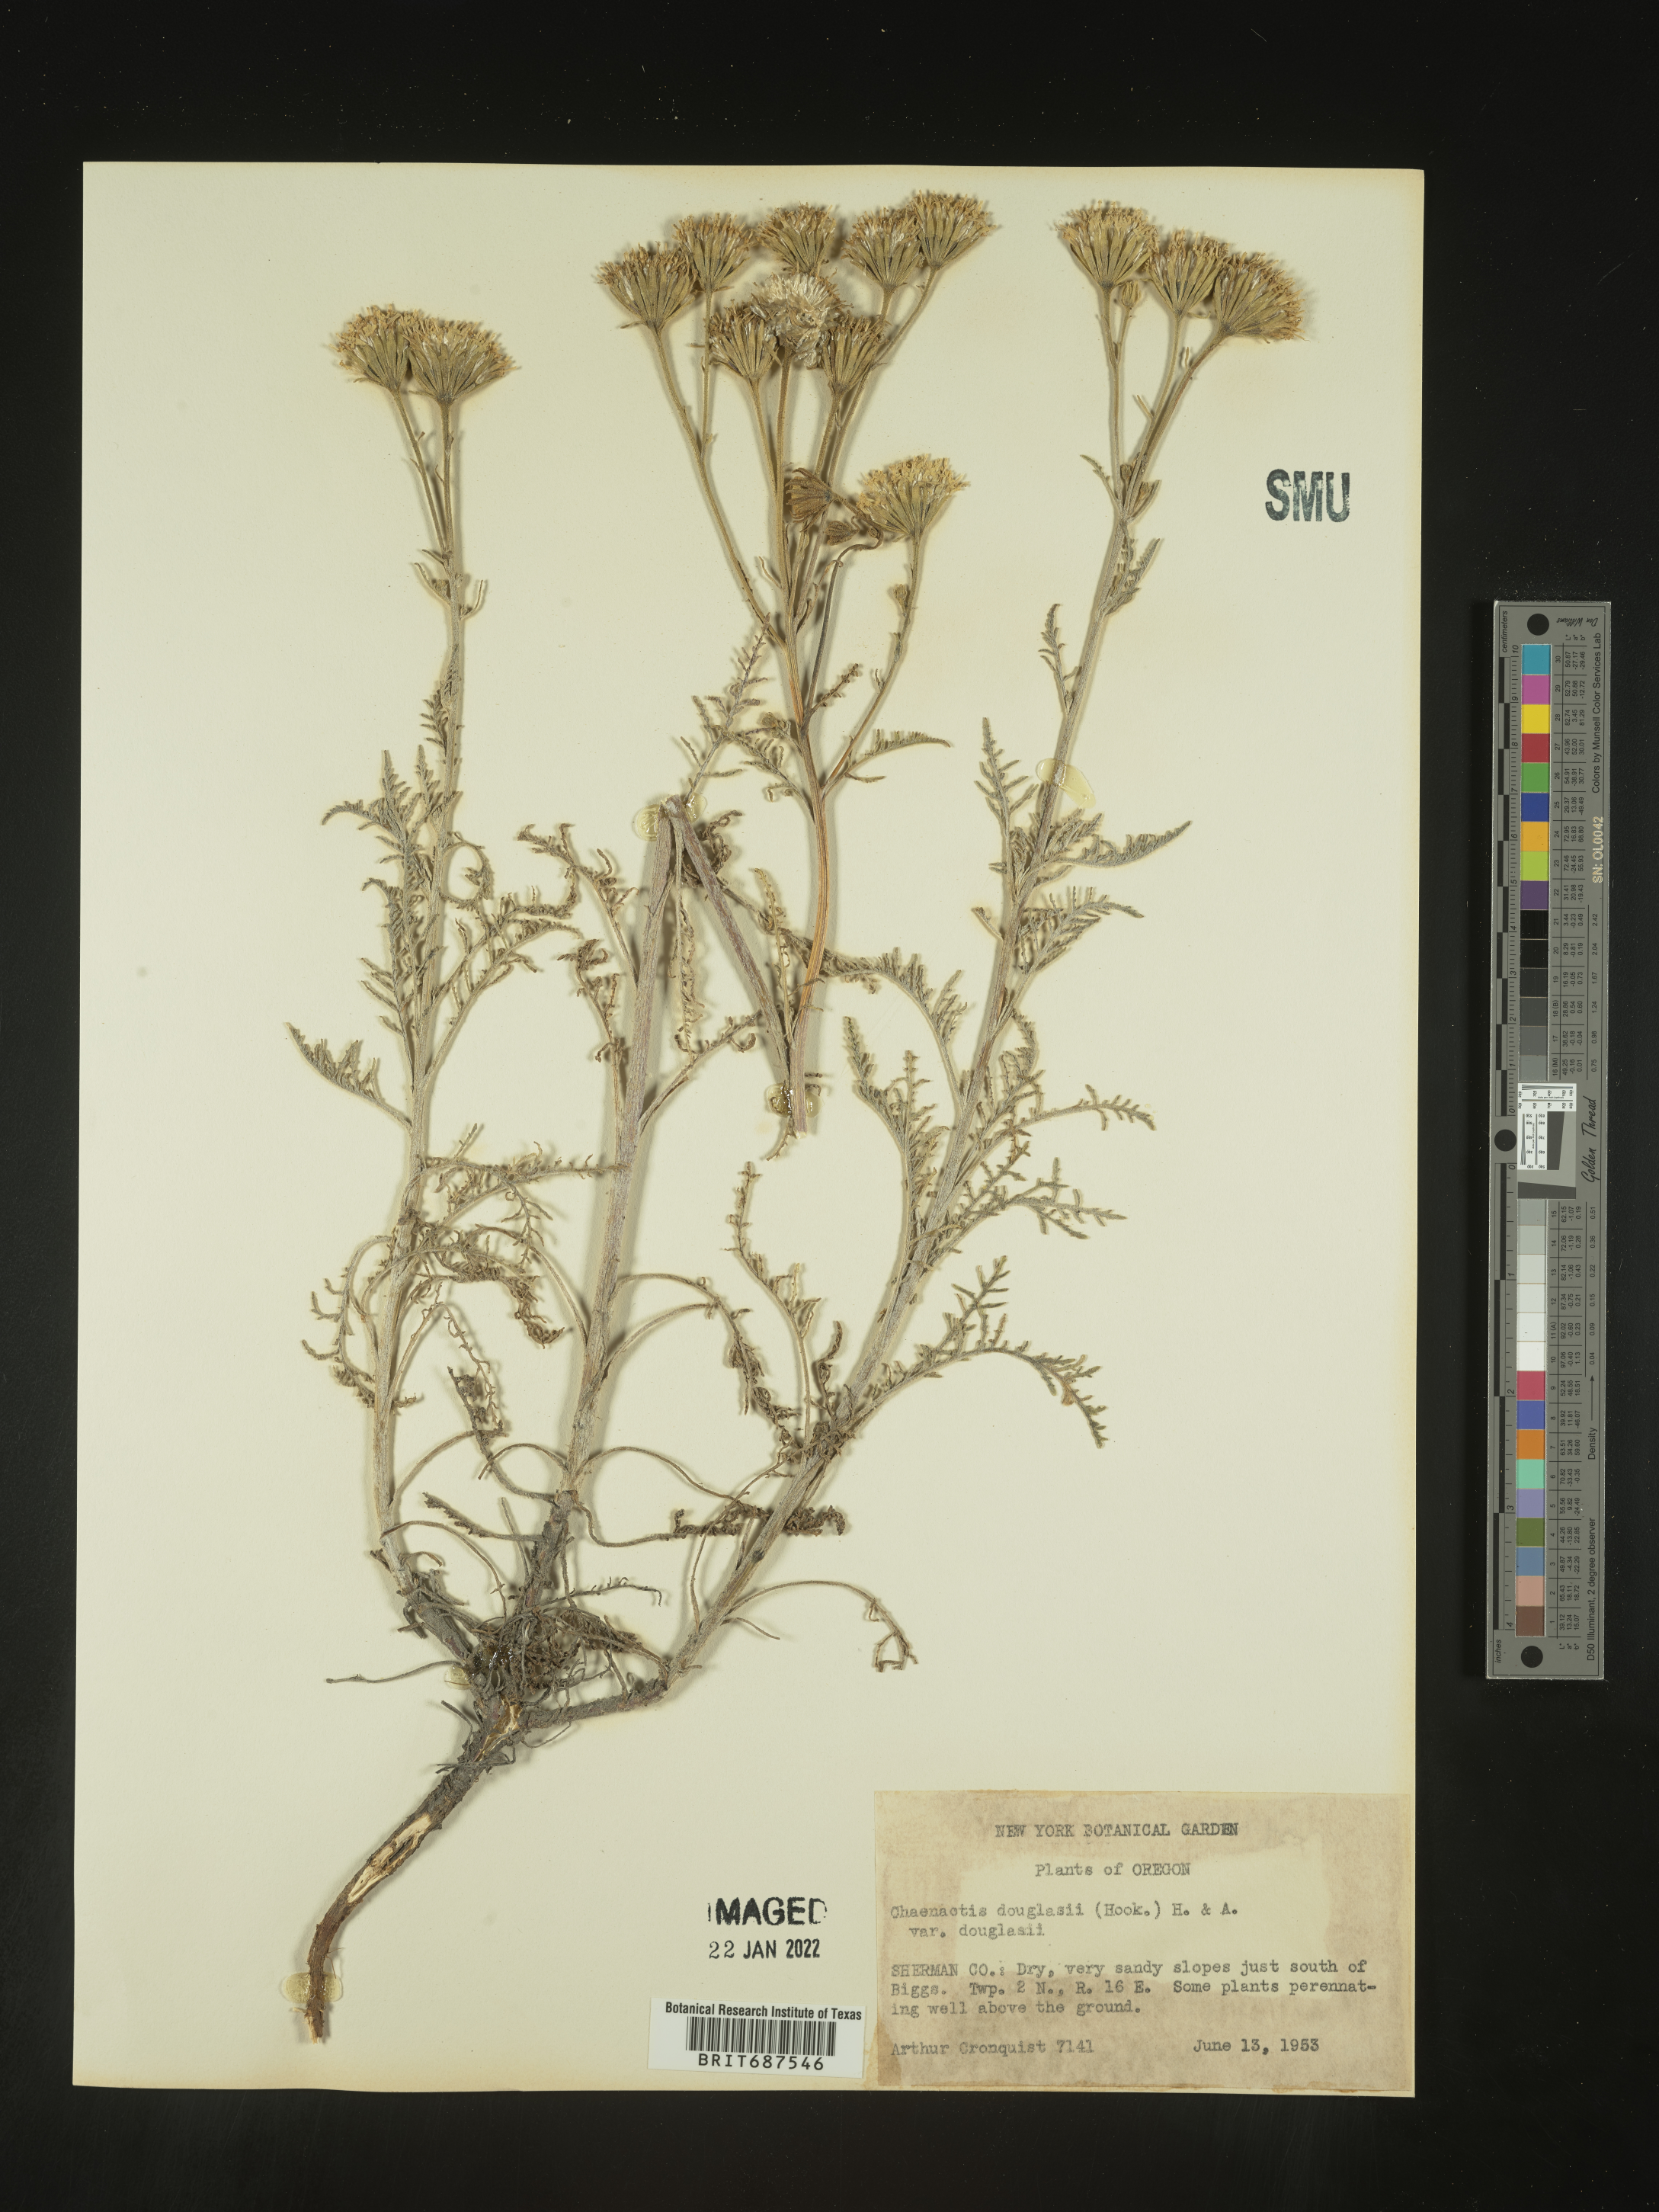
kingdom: Plantae
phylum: Tracheophyta
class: Magnoliopsida
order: Asterales
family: Asteraceae
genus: Chaenactis
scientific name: Chaenactis douglasii
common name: Hoary pincushion
